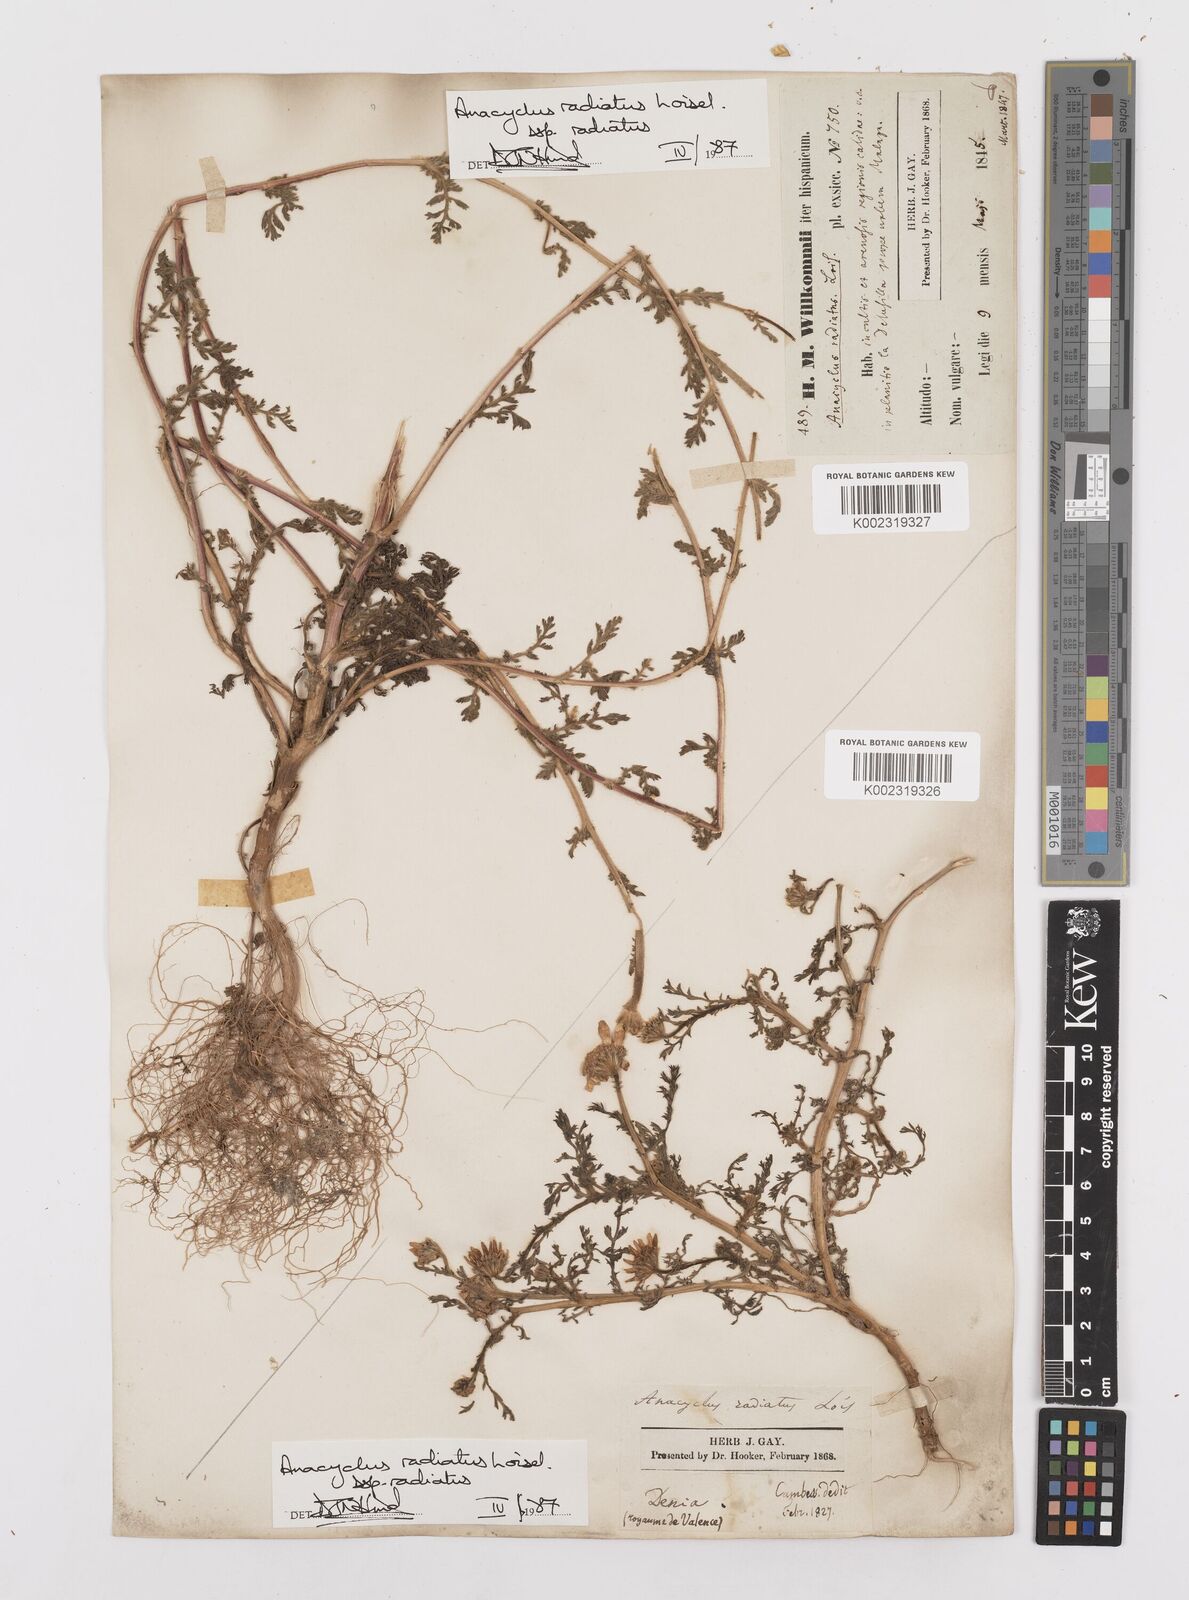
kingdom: Plantae
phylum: Tracheophyta
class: Magnoliopsida
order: Asterales
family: Asteraceae
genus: Anacyclus
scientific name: Anacyclus radiatus
